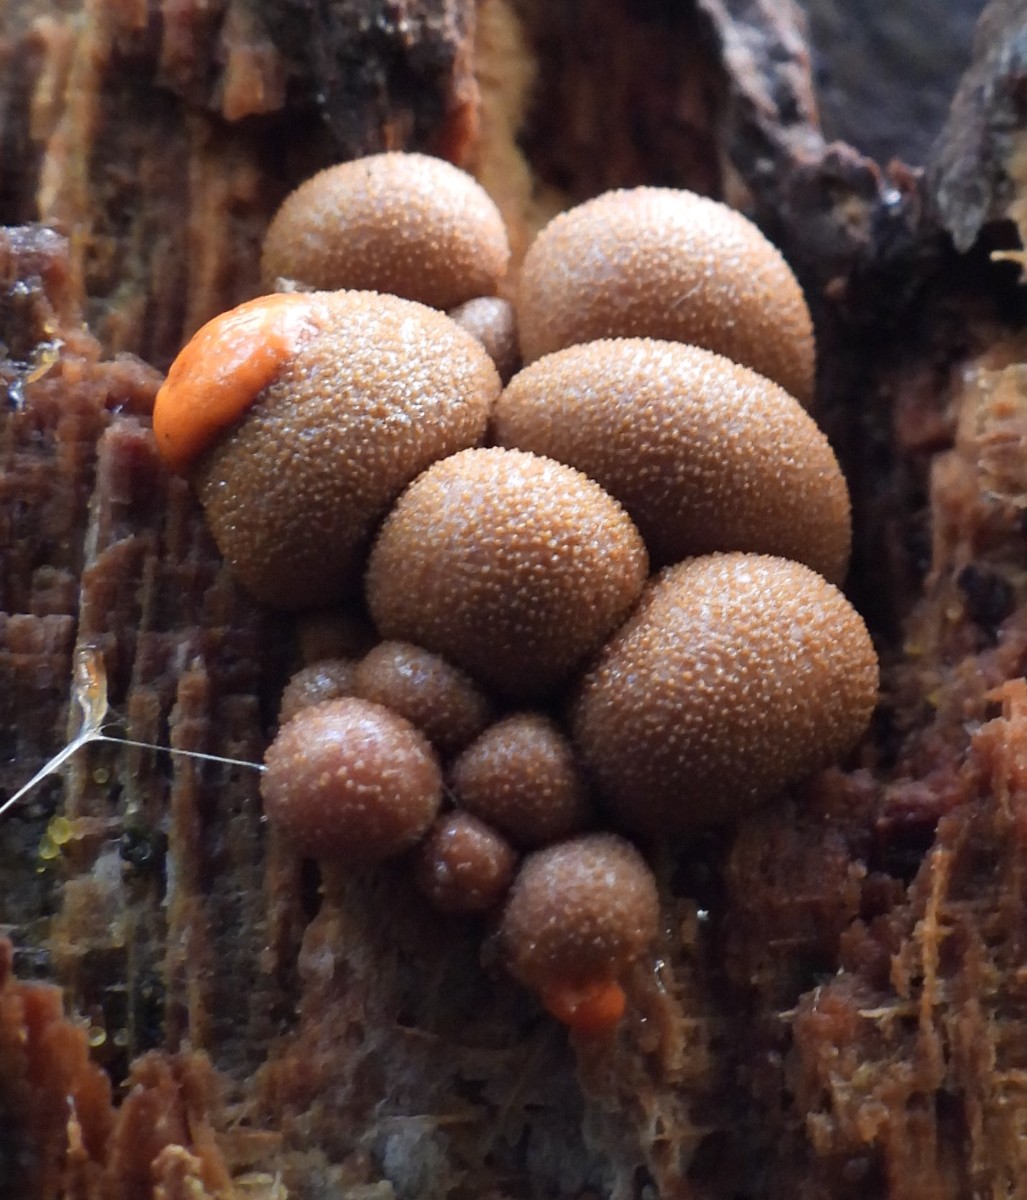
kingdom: Protozoa
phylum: Mycetozoa
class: Myxomycetes
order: Cribrariales
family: Tubiferaceae
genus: Lycogala
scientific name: Lycogala epidendrum
